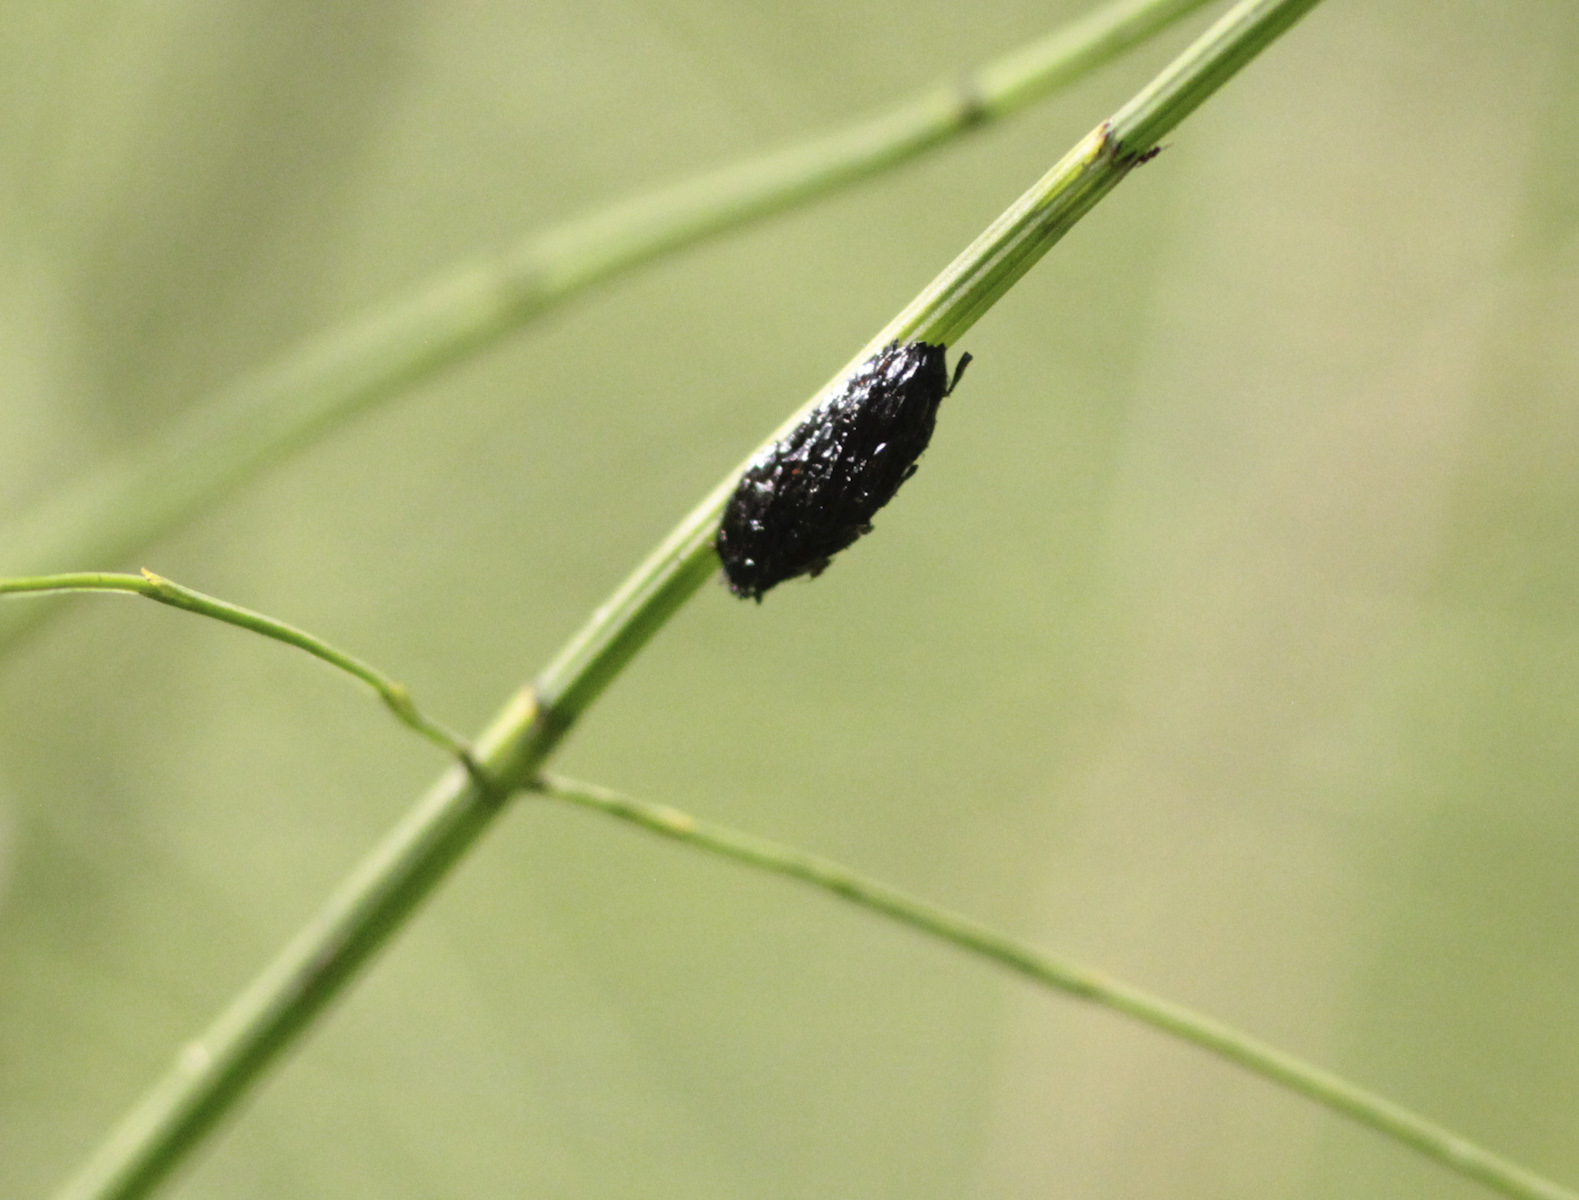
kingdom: Animalia
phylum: Arthropoda
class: Insecta
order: Diptera
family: Tabanidae
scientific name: Tabanidae
